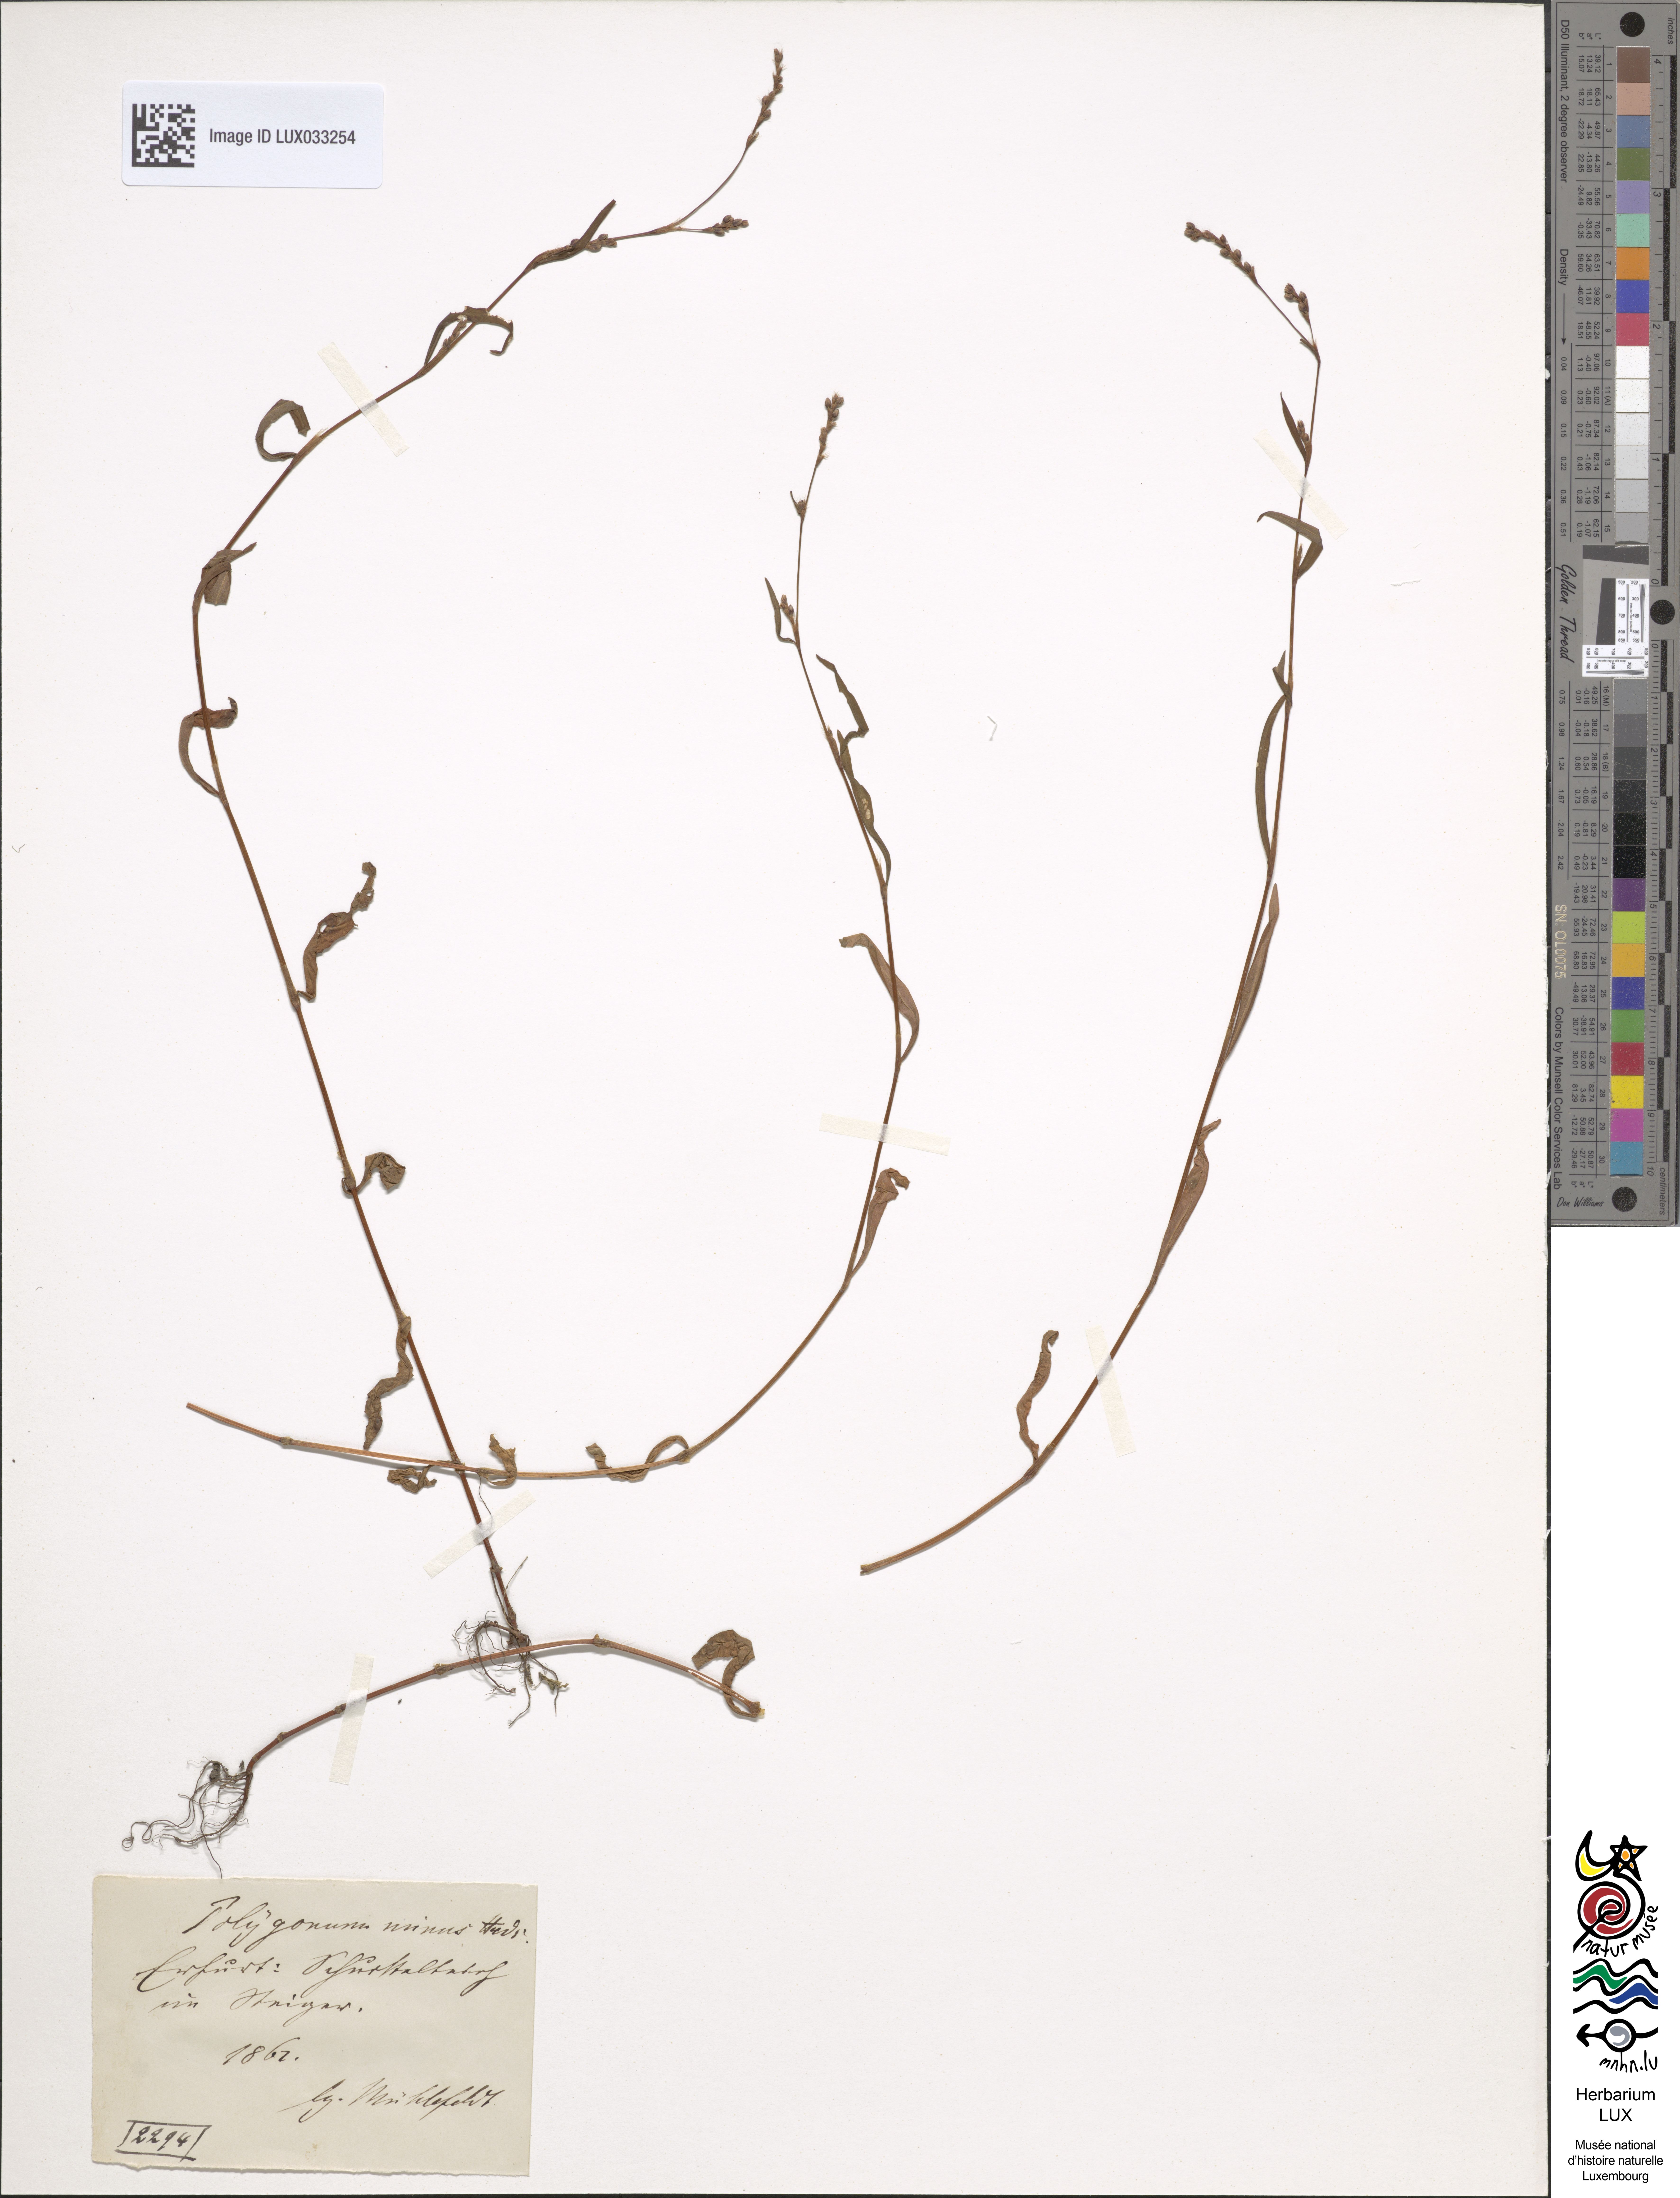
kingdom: Plantae
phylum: Tracheophyta
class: Magnoliopsida
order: Caryophyllales
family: Polygonaceae
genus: Persicaria
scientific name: Persicaria minor
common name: Small water-pepper
